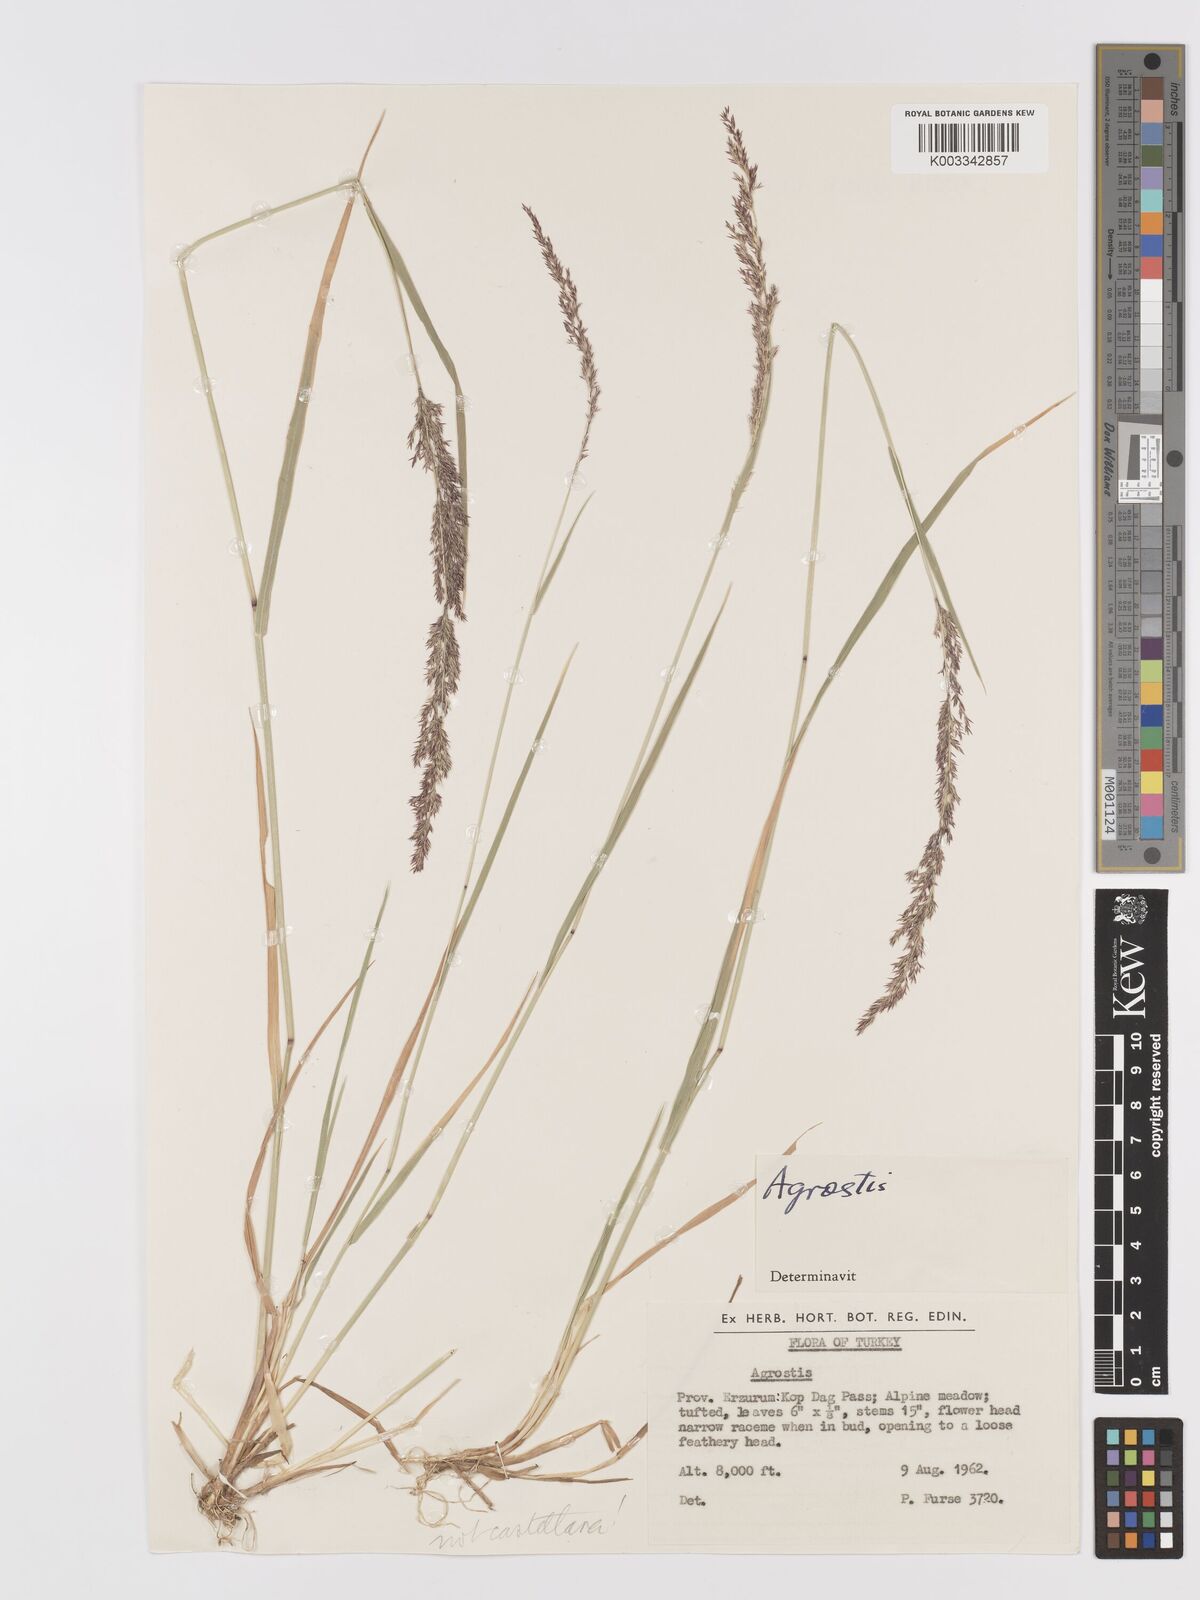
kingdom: Plantae
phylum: Tracheophyta
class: Liliopsida
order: Poales
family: Poaceae
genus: Agrostis
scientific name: Agrostis
